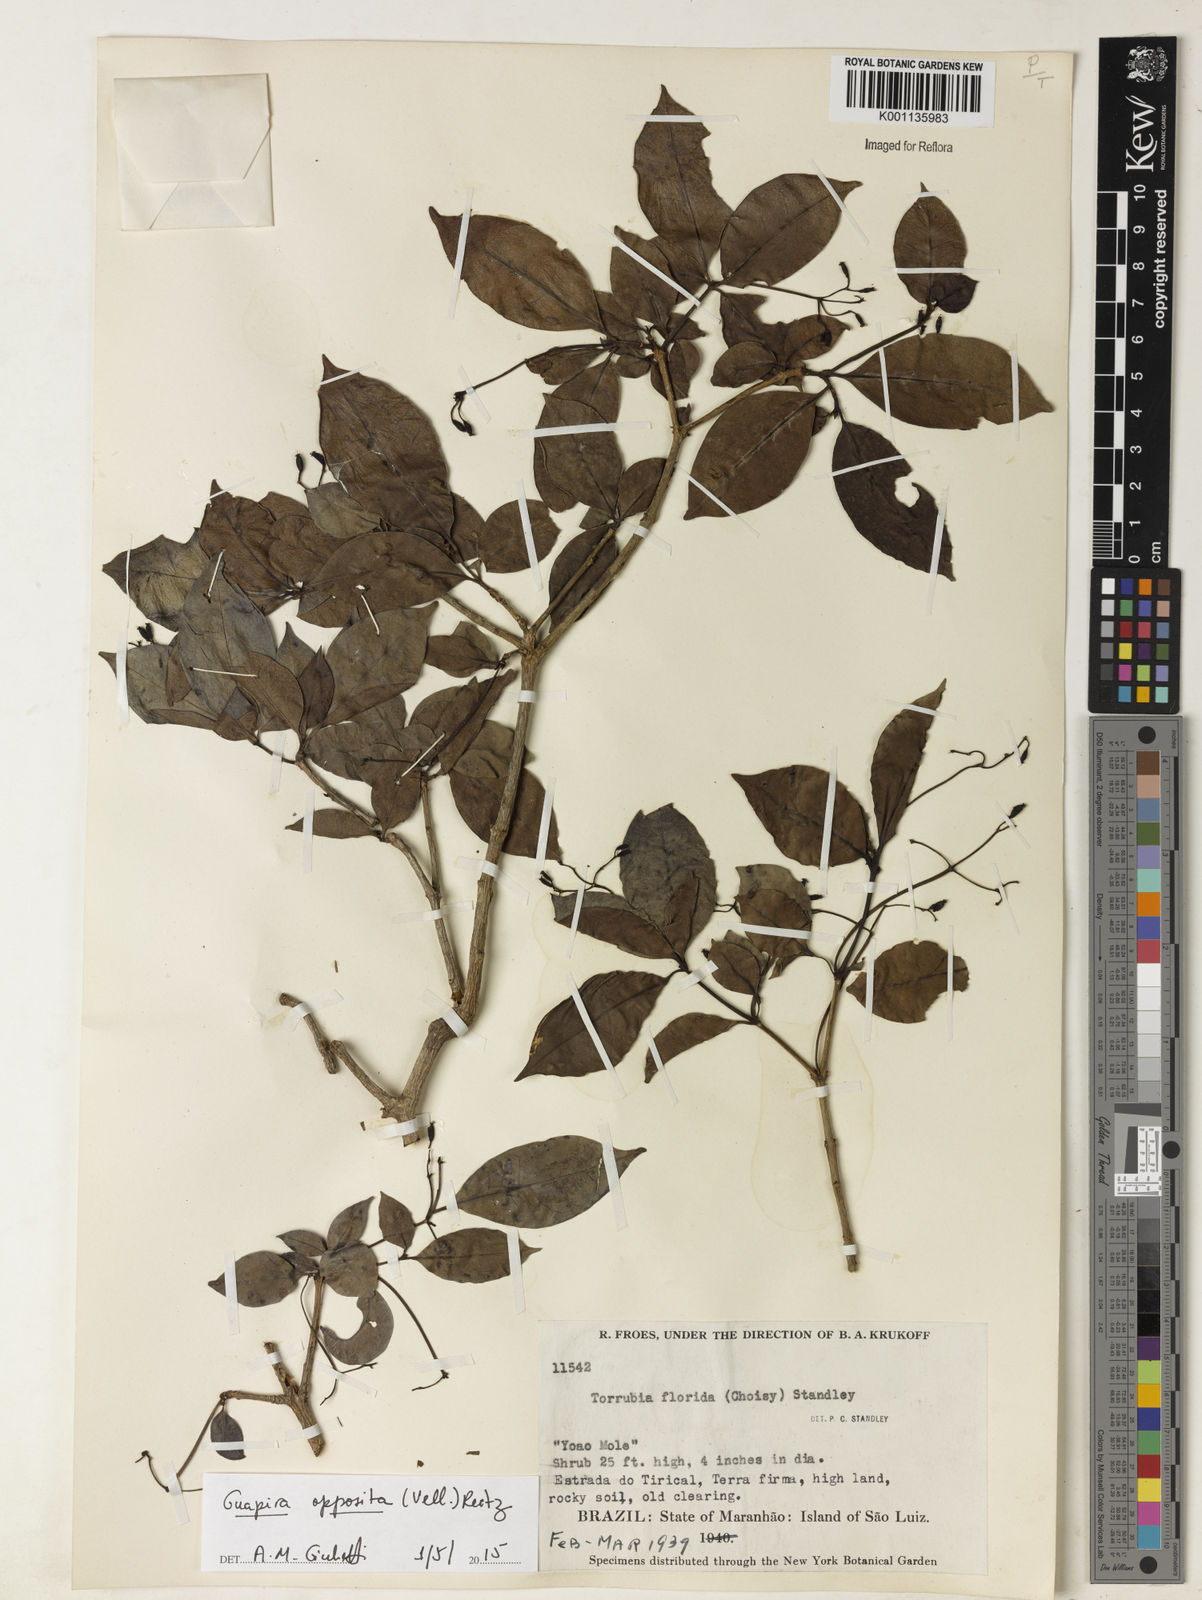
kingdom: Plantae
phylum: Tracheophyta
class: Magnoliopsida
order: Caryophyllales
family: Nyctaginaceae
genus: Guapira
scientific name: Guapira opposita
